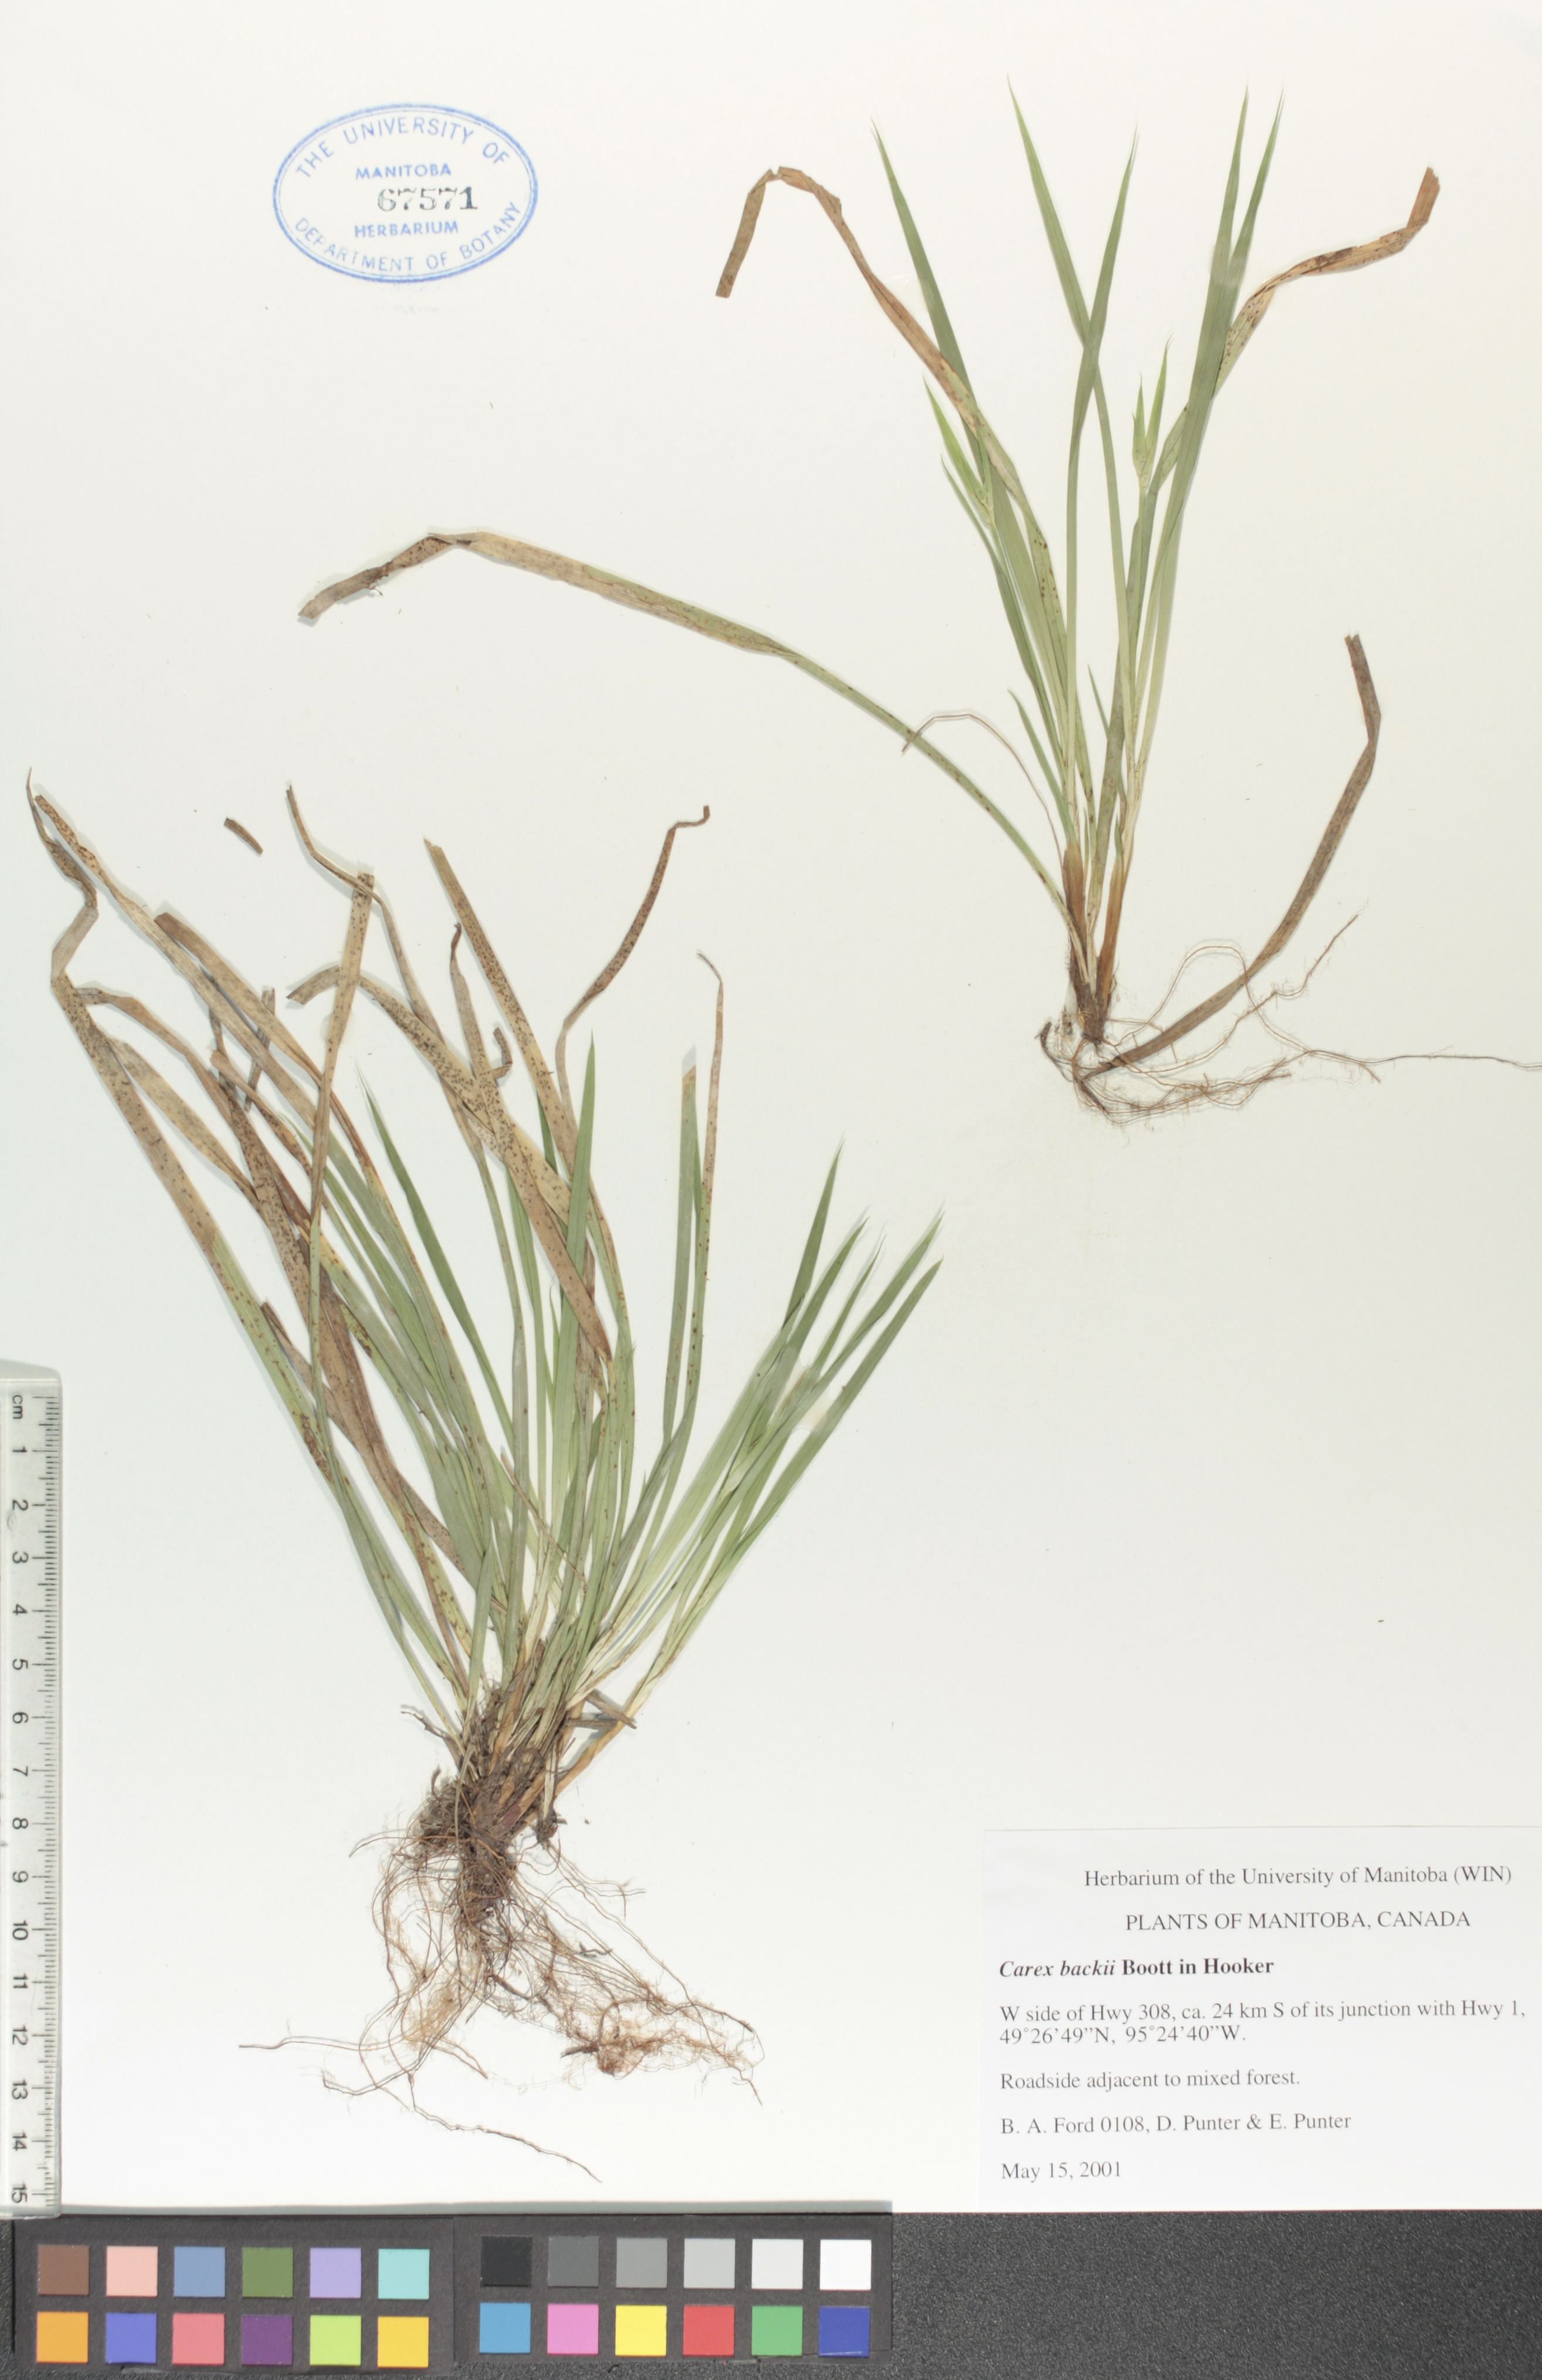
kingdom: Plantae
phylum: Tracheophyta
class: Liliopsida
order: Poales
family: Cyperaceae
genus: Carex
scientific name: Carex backii
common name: Back's sedge
